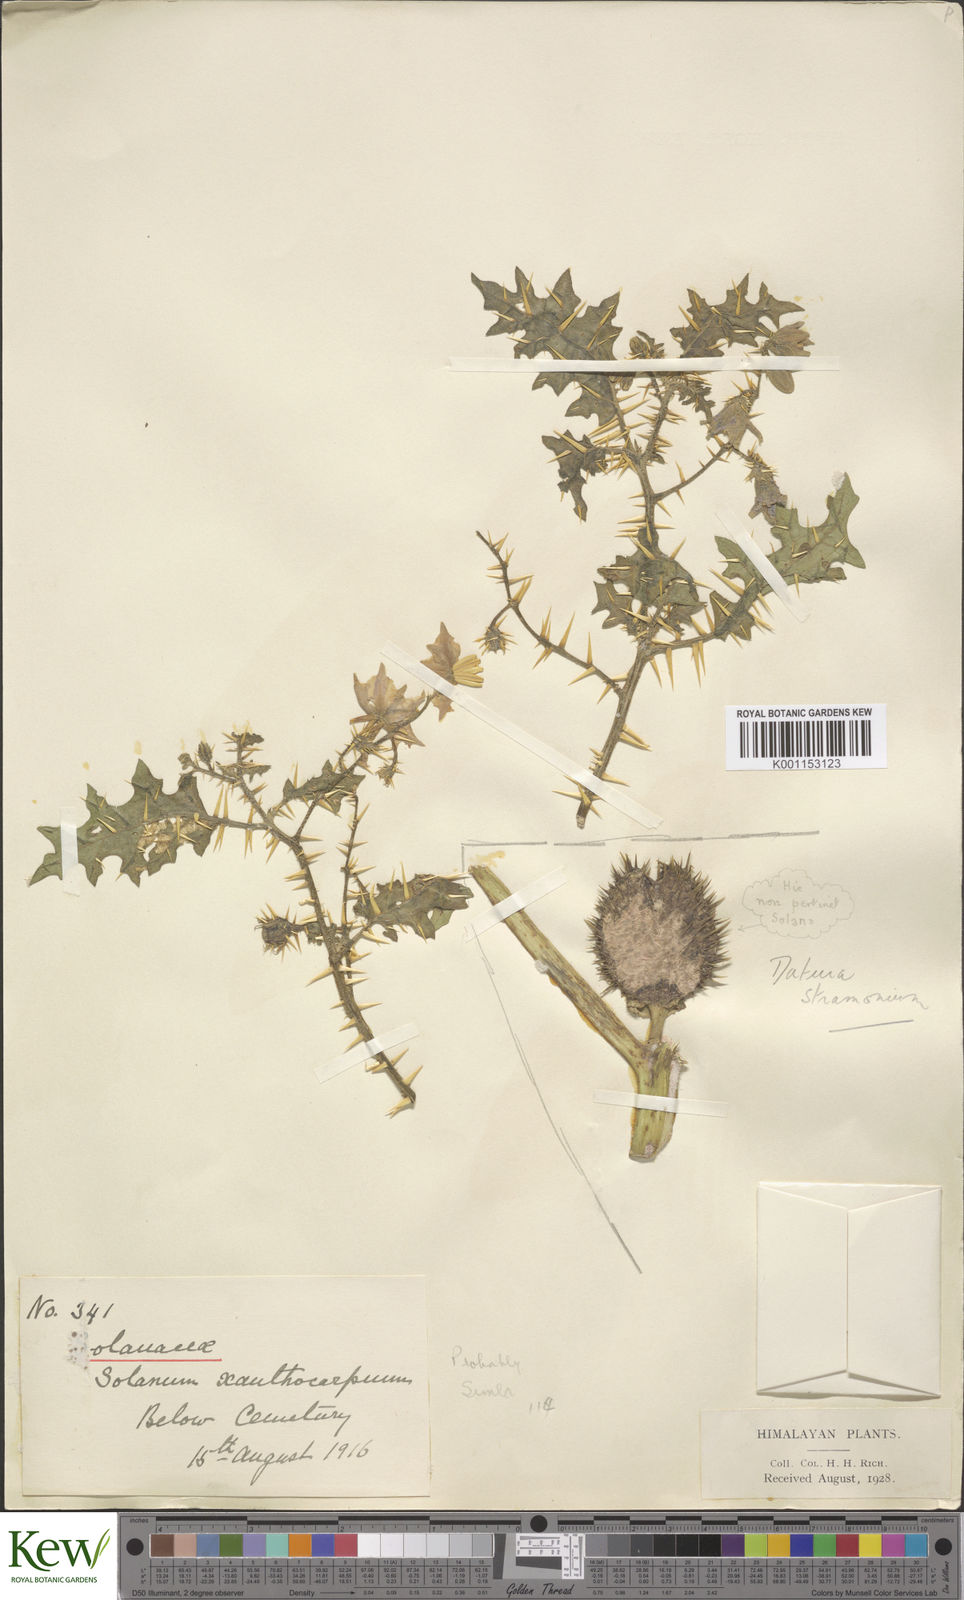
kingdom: Plantae
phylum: Tracheophyta
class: Magnoliopsida
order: Solanales
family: Solanaceae
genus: Solanum
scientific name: Solanum virginianum
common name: Surattense nightshade
